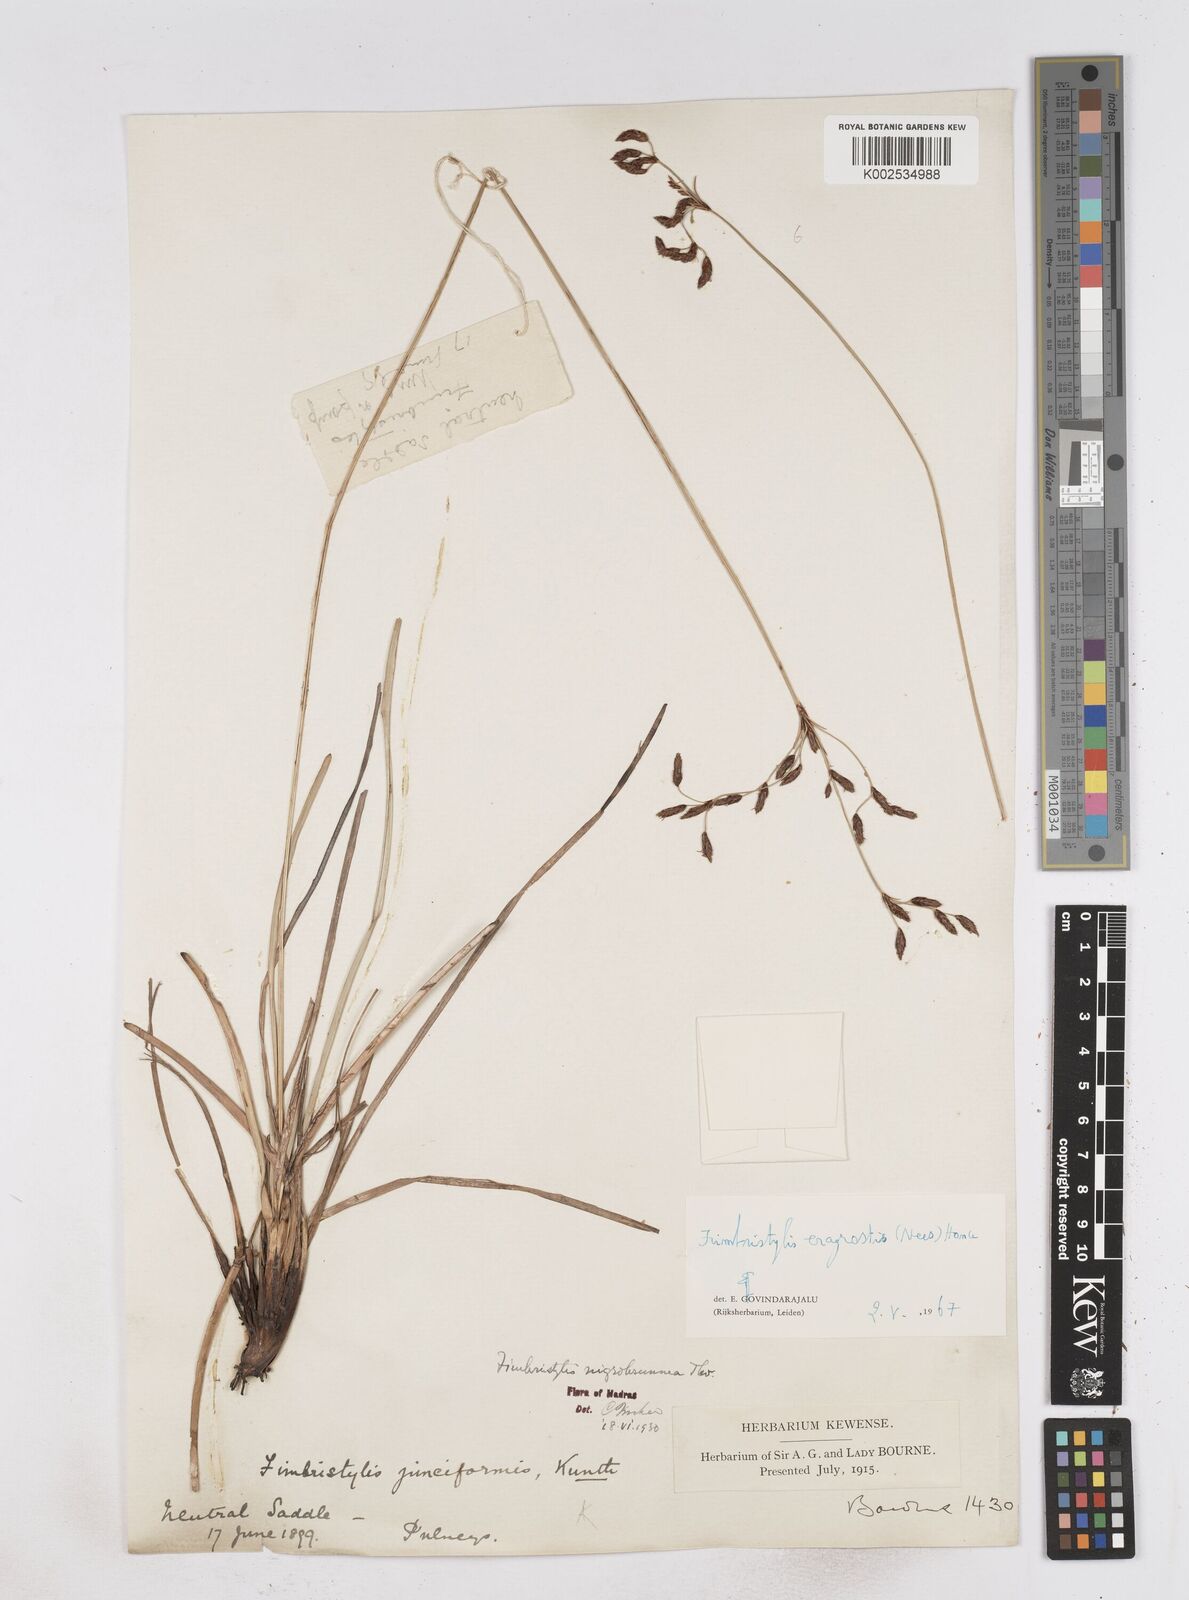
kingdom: Plantae
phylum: Tracheophyta
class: Liliopsida
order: Poales
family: Cyperaceae
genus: Fimbristylis
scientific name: Fimbristylis nigrobrunnea
